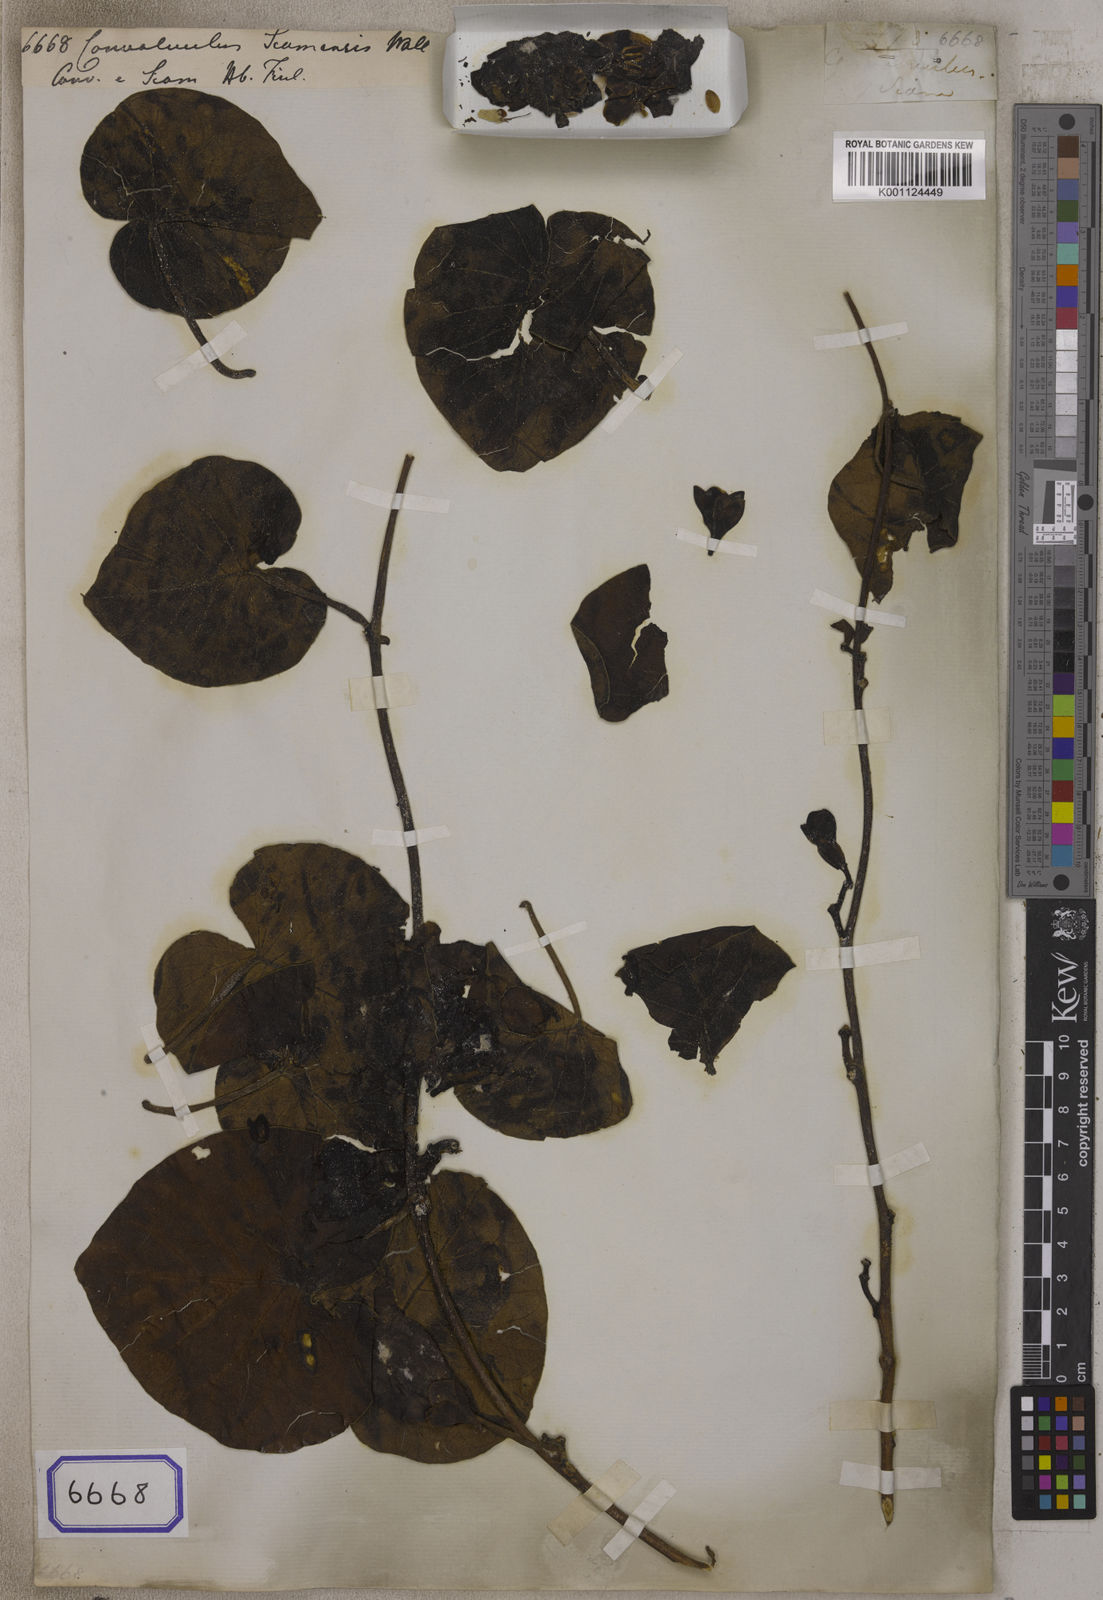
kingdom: Plantae
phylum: Tracheophyta
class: Magnoliopsida
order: Solanales
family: Convolvulaceae
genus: Convolvulus
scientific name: Convolvulus
